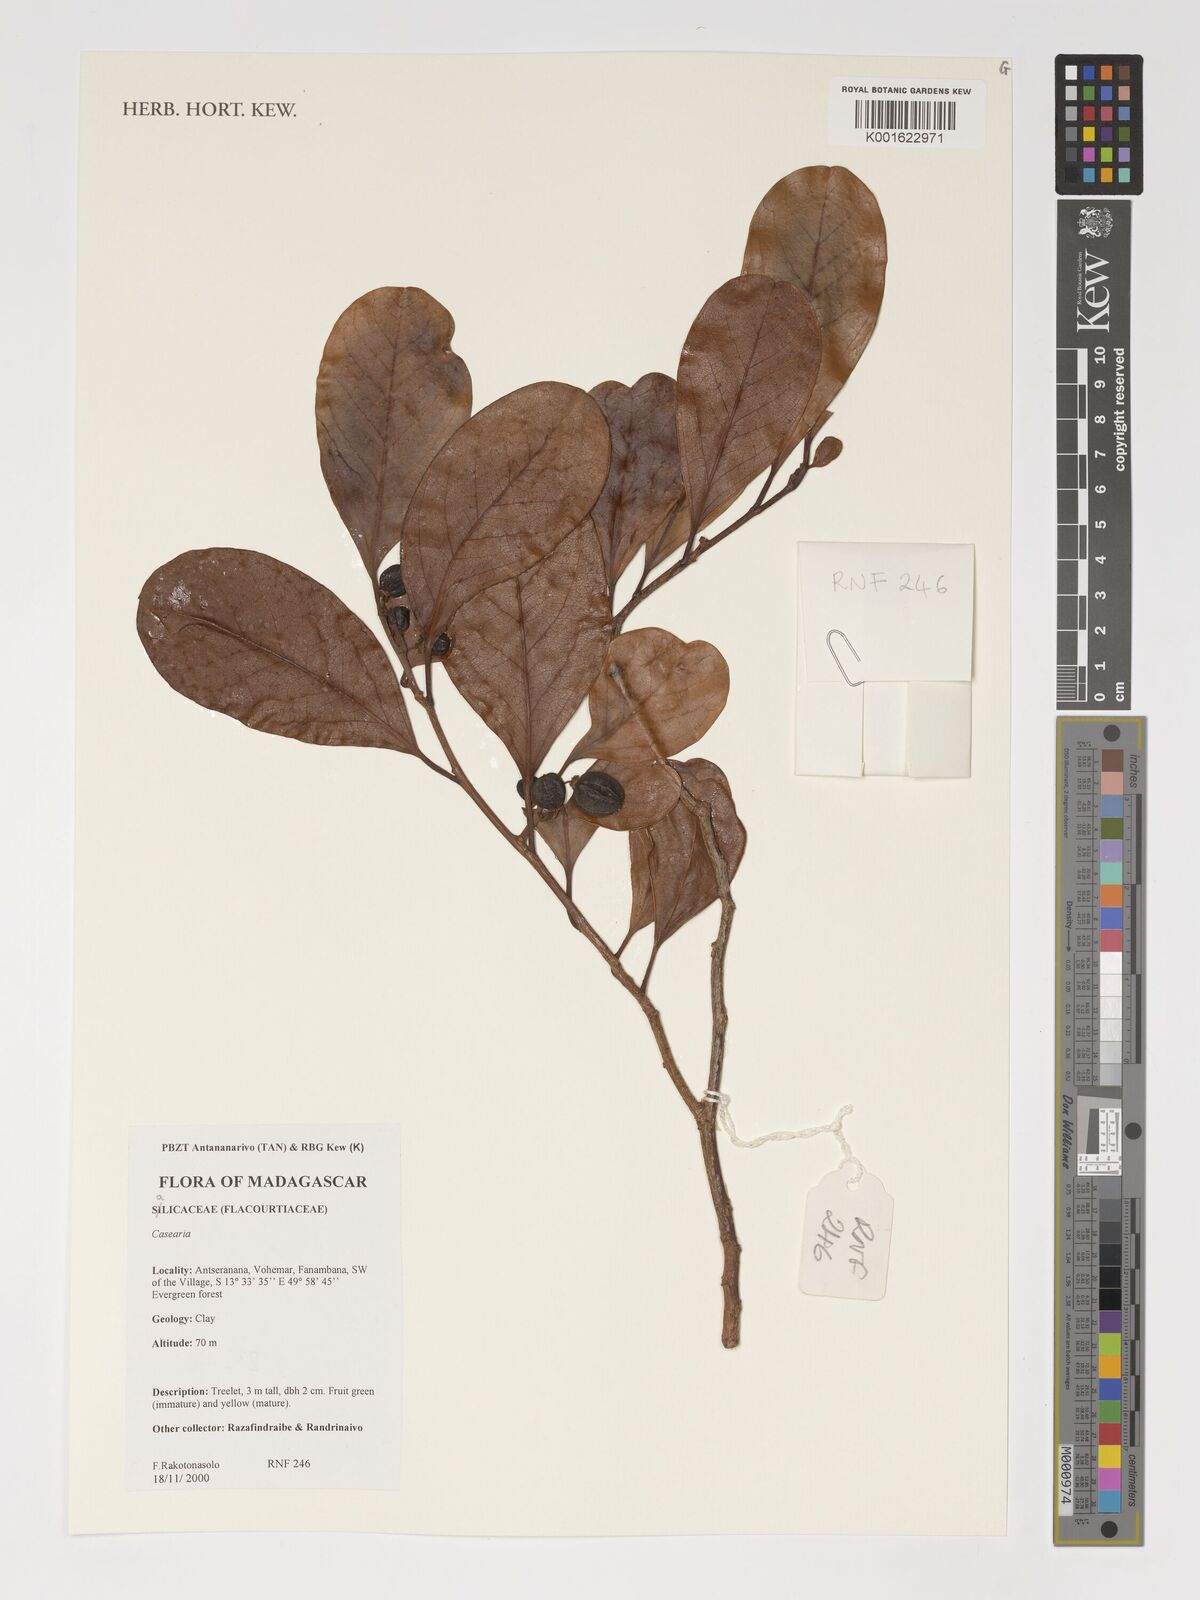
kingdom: Plantae
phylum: Tracheophyta
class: Magnoliopsida
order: Malpighiales
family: Salicaceae
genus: Casearia
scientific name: Casearia
